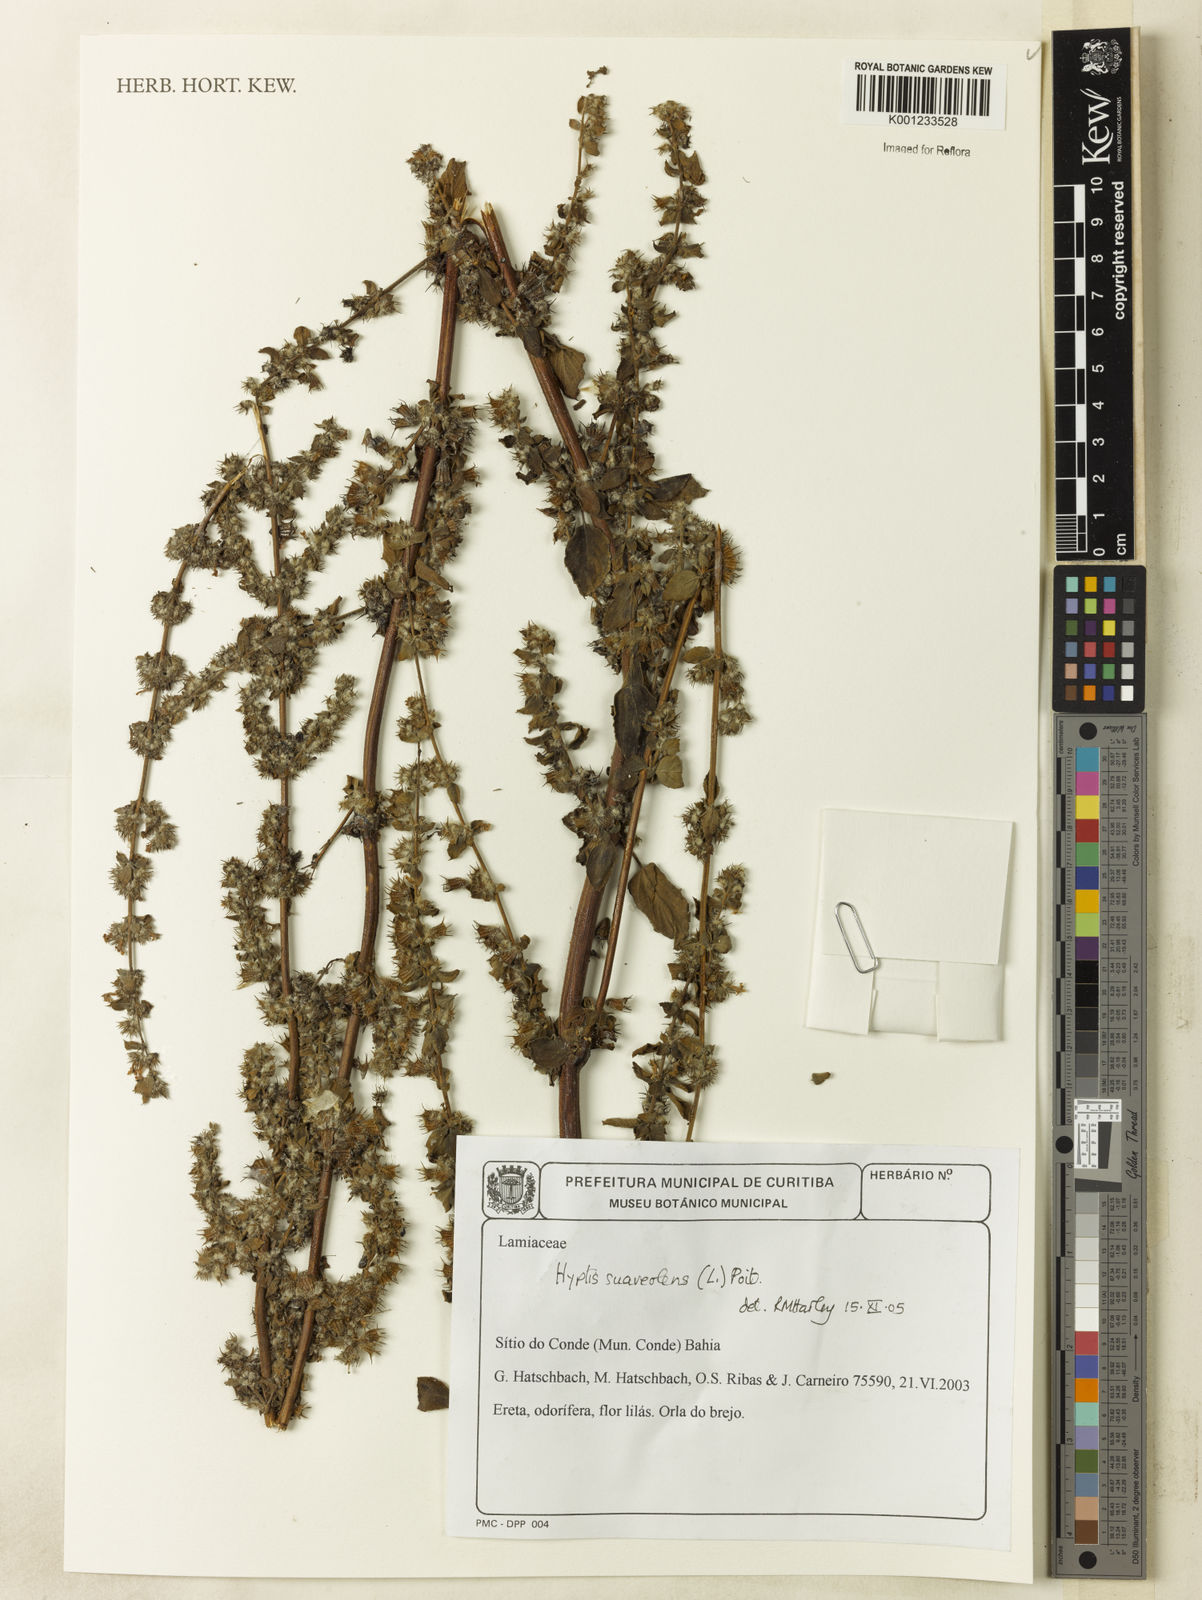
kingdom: Plantae
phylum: Tracheophyta
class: Magnoliopsida
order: Lamiales
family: Lamiaceae
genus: Mesosphaerum
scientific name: Mesosphaerum suaveolens
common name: Pignut
